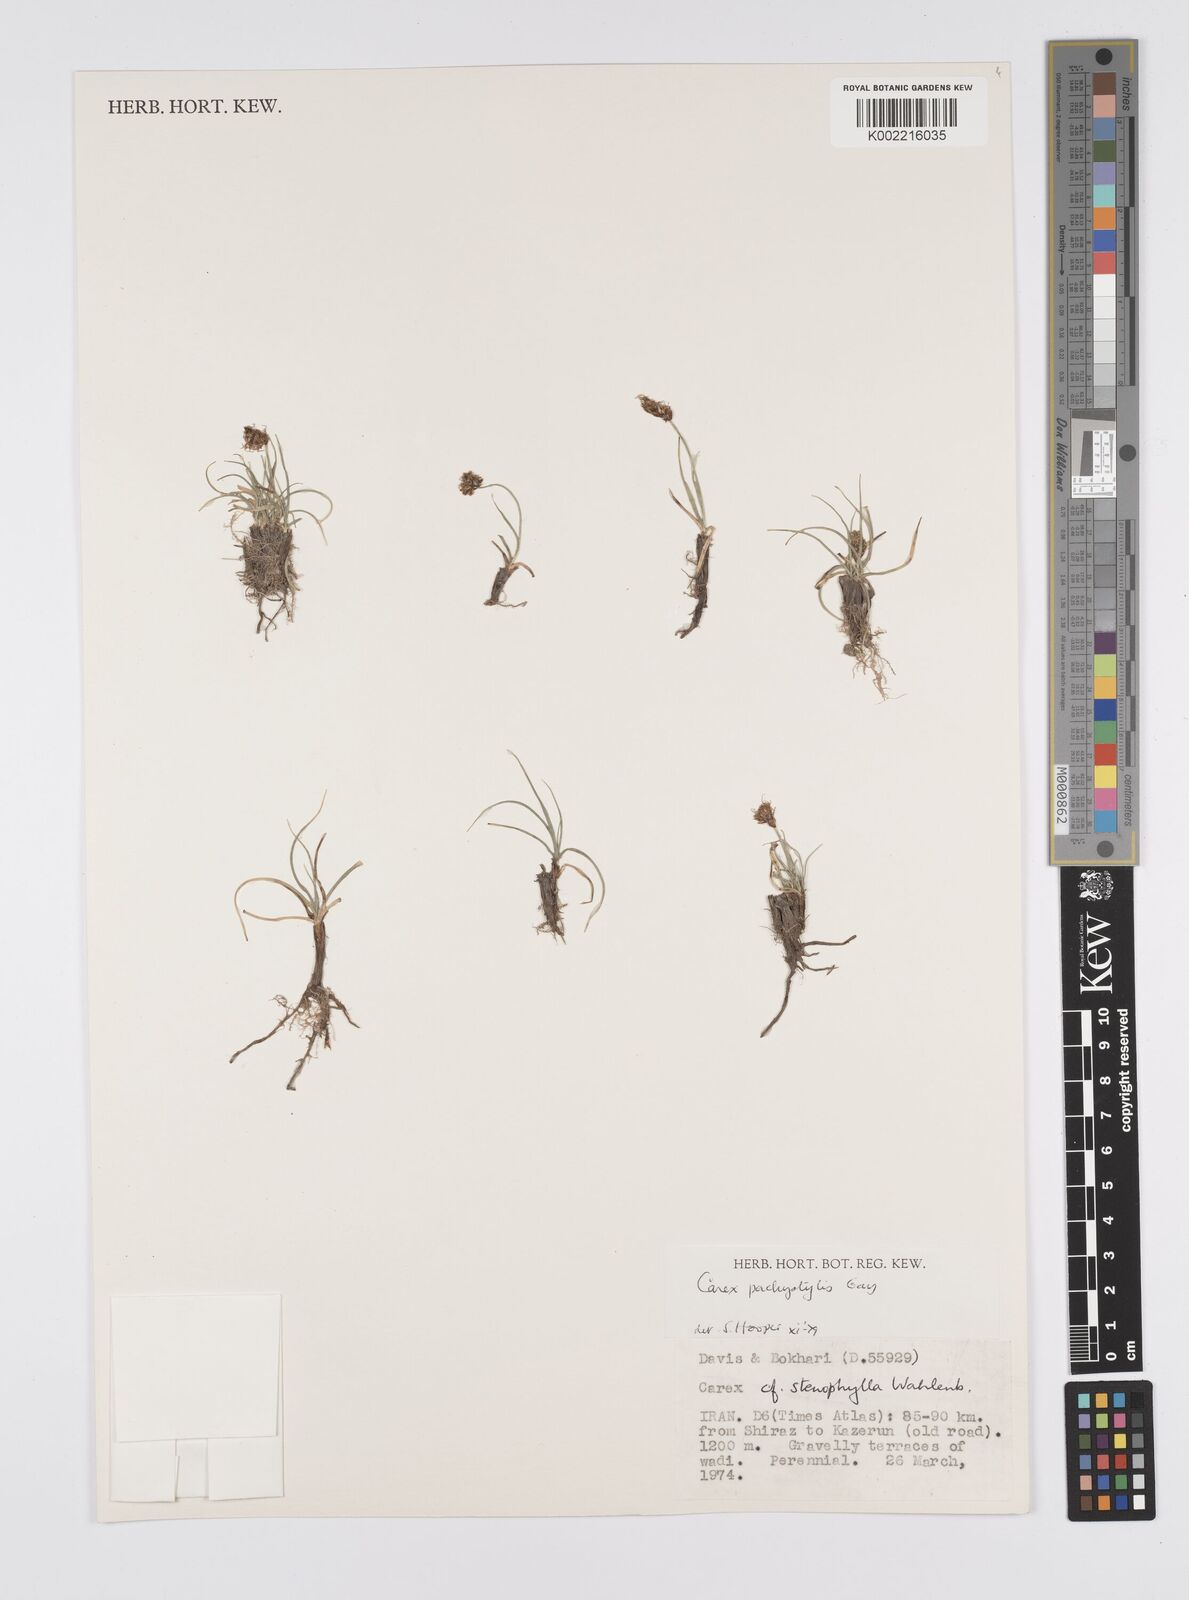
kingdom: Plantae
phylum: Tracheophyta
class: Liliopsida
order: Poales
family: Cyperaceae
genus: Carex
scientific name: Carex pachystylis
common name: Thick-stem sedge
